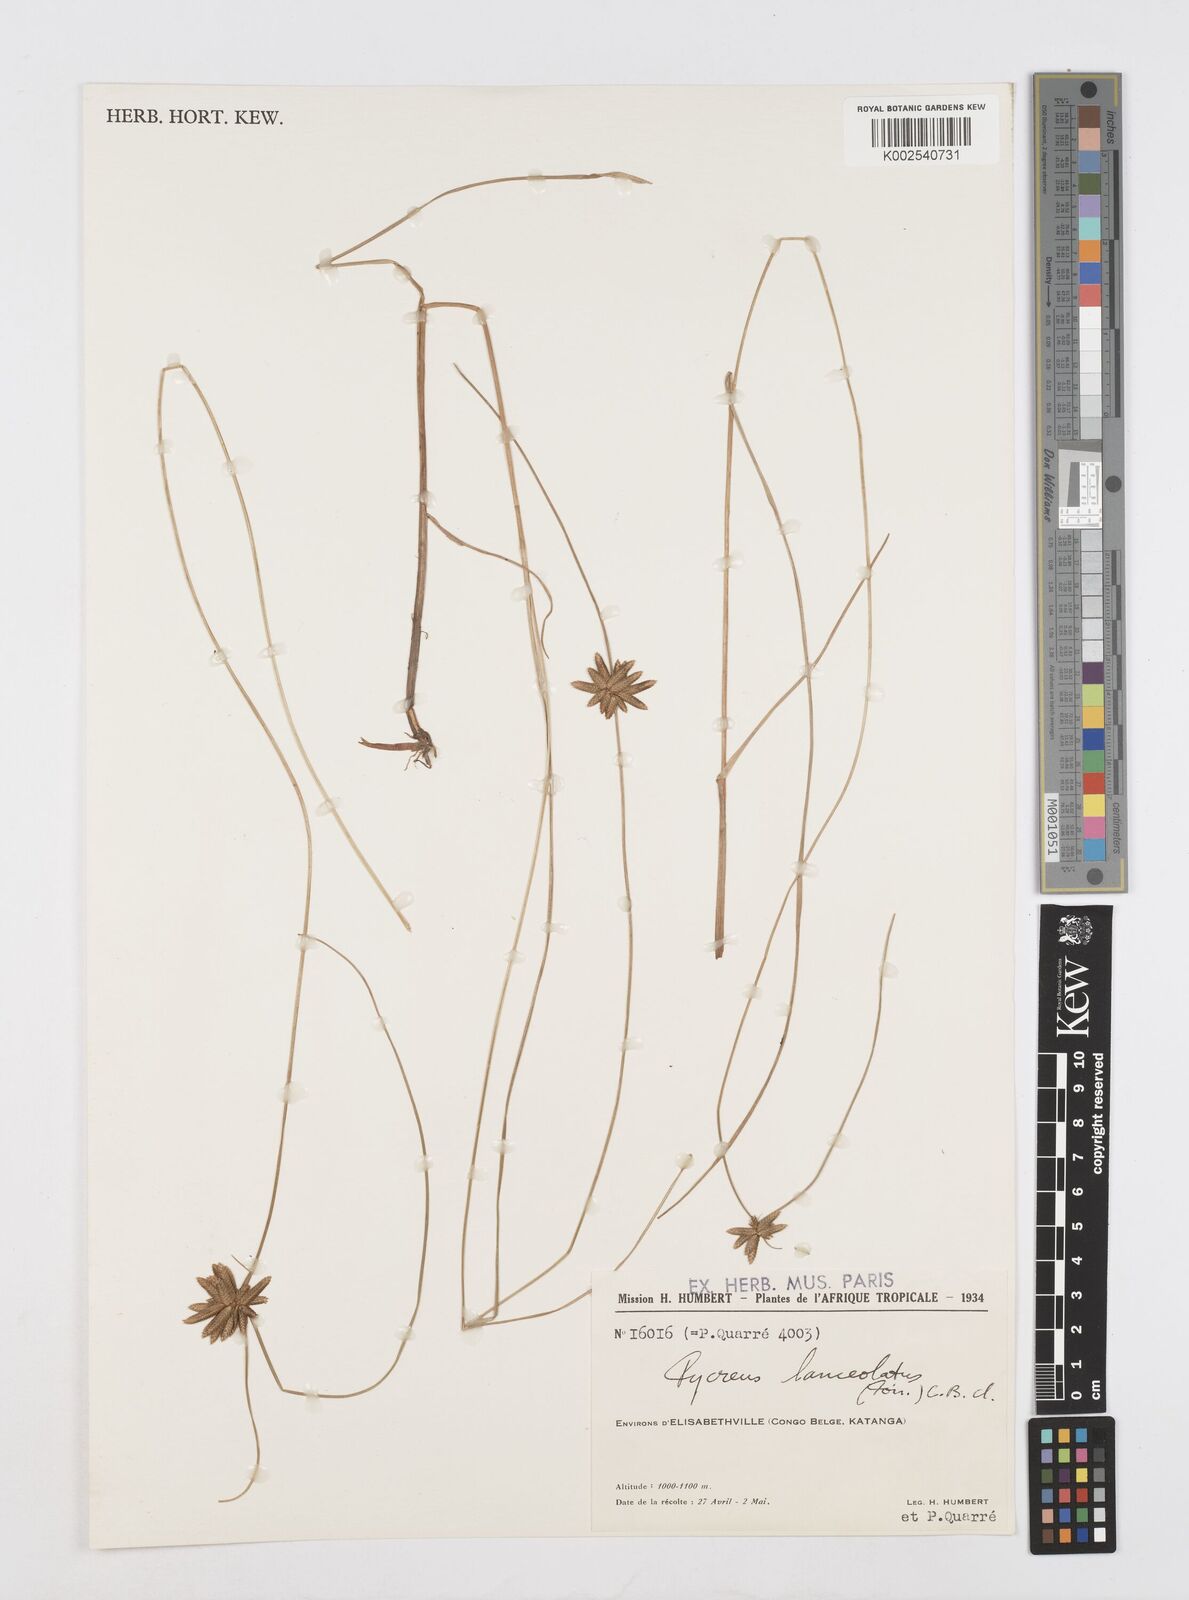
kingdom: Plantae
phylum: Tracheophyta
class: Liliopsida
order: Poales
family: Cyperaceae
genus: Cyperus
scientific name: Cyperus
